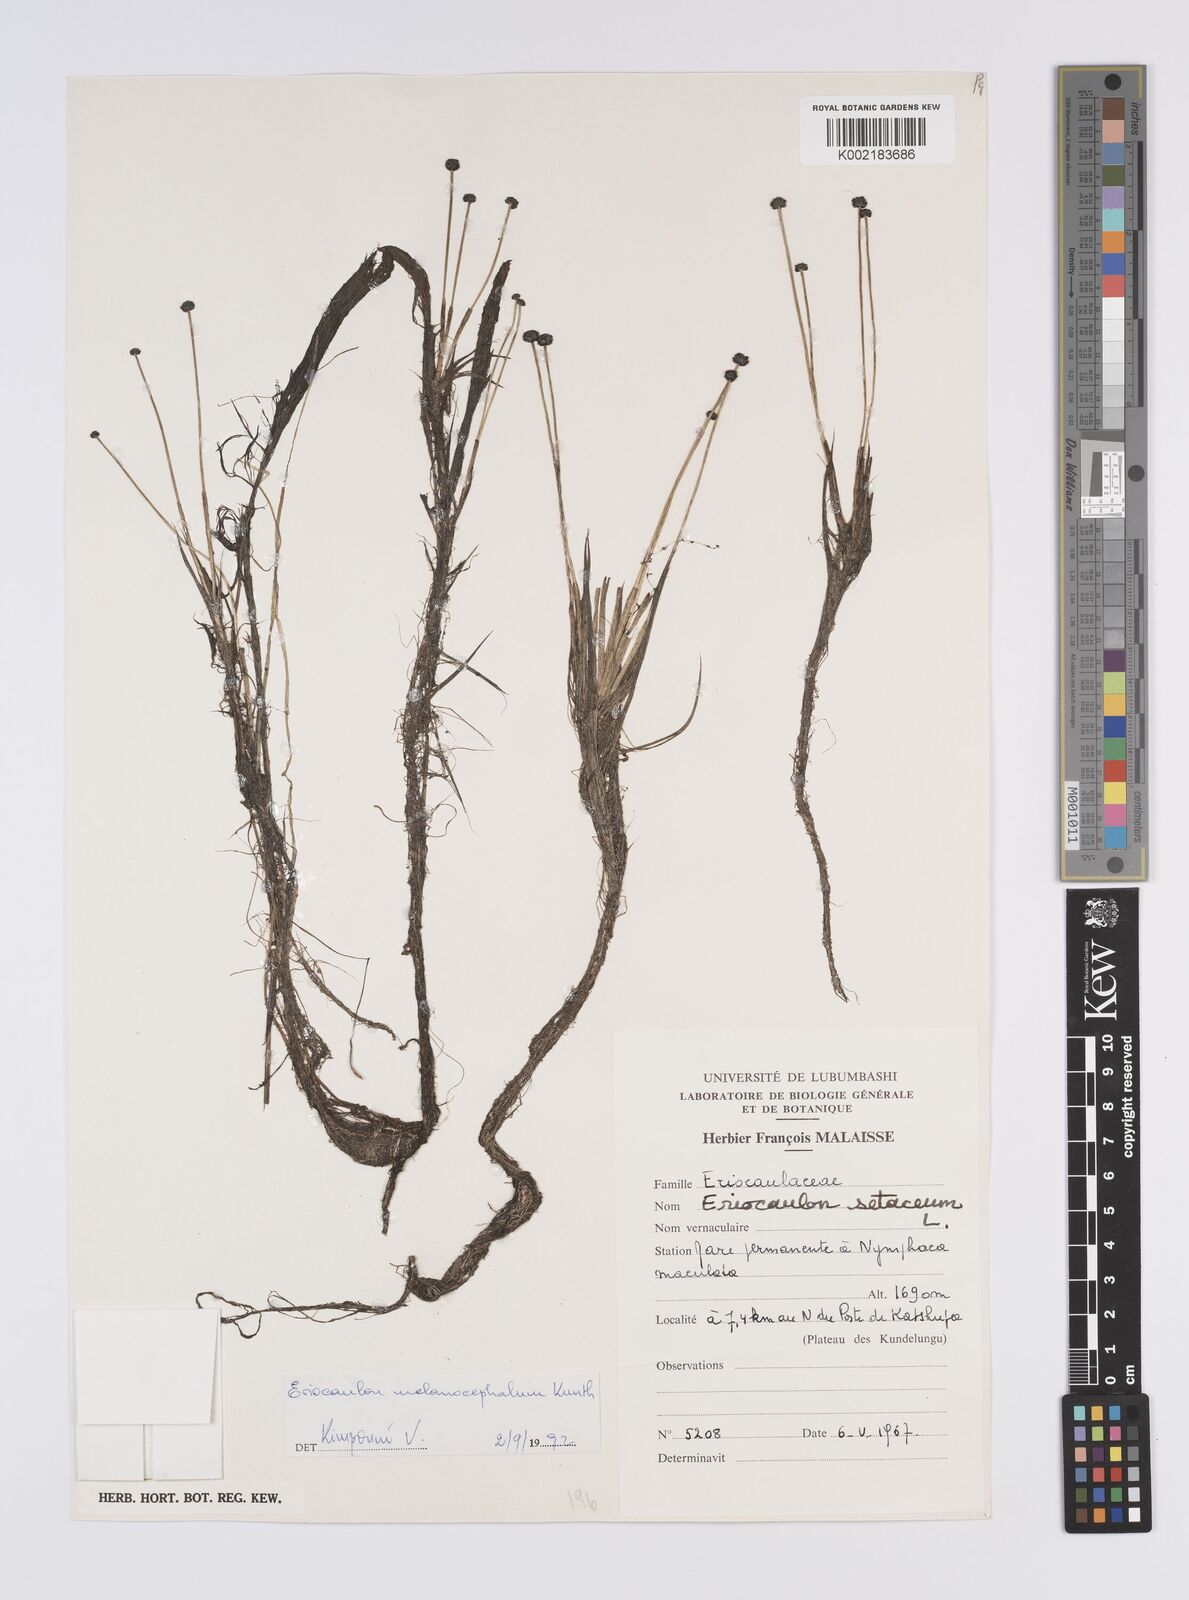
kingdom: Plantae
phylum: Tracheophyta
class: Liliopsida
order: Poales
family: Eriocaulaceae
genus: Eriocaulon
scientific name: Eriocaulon setaceum
